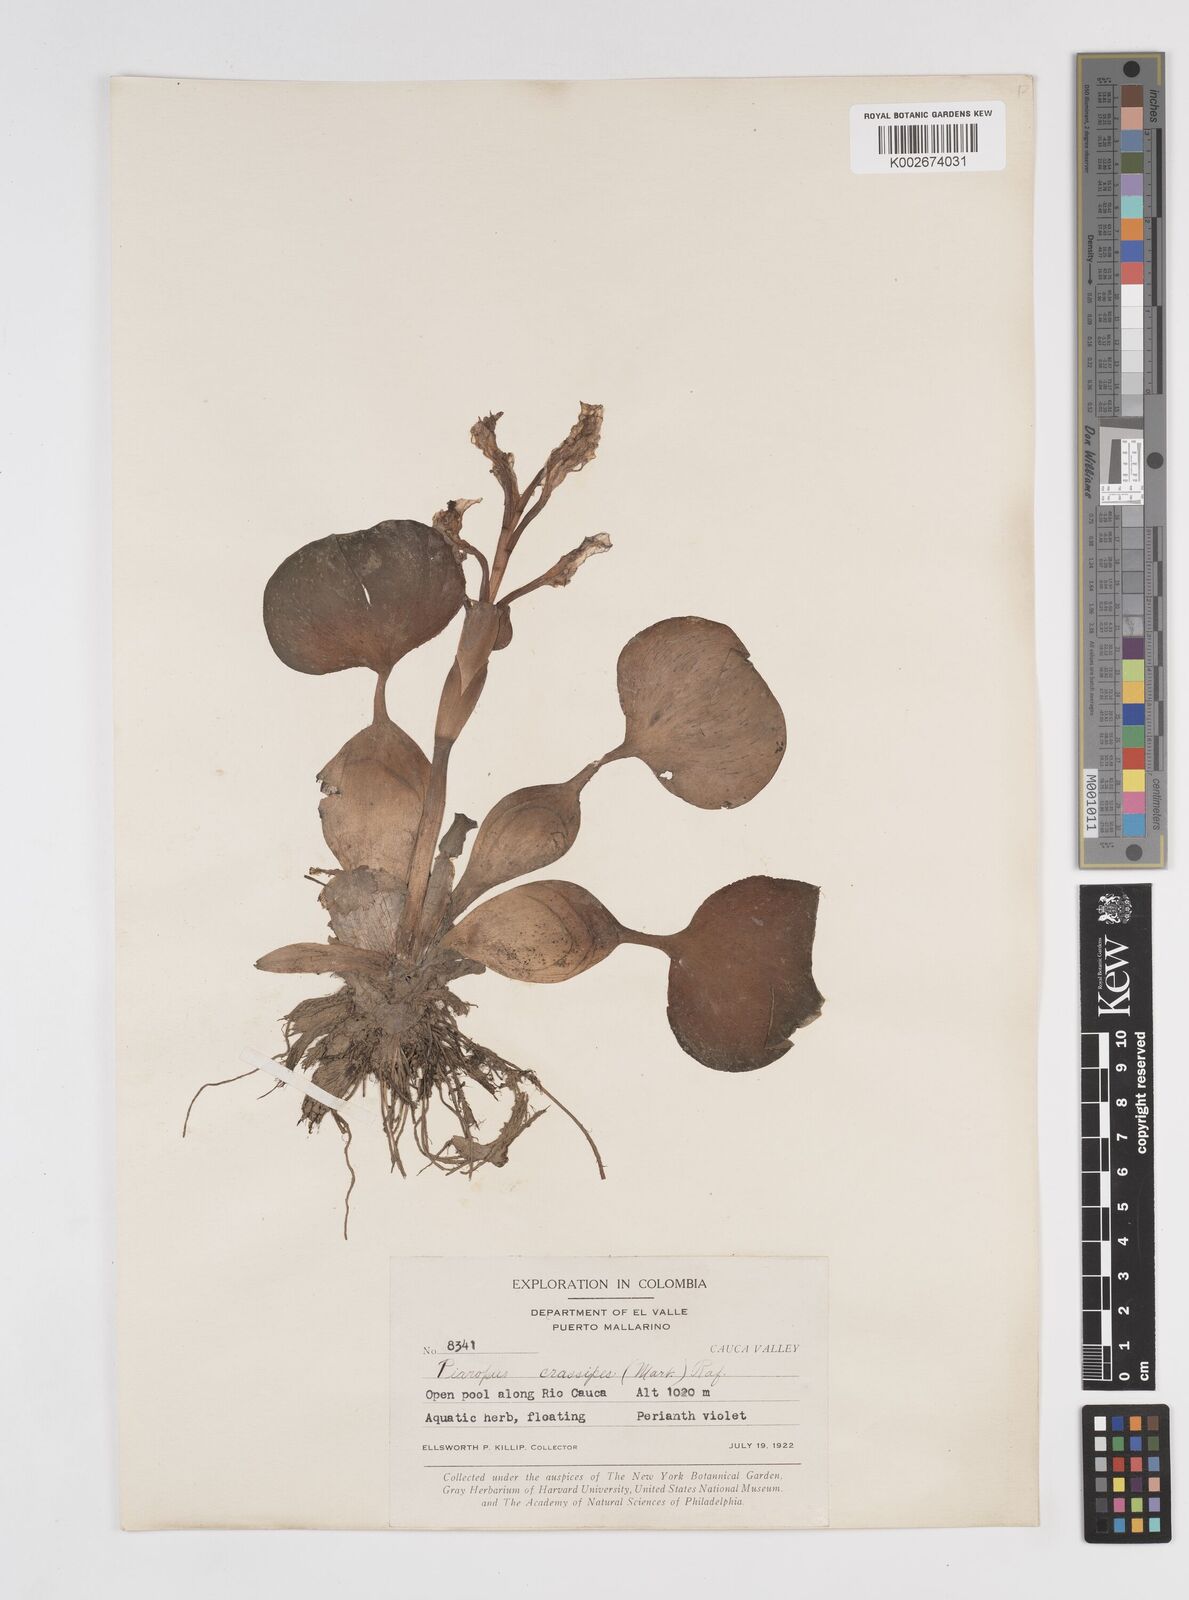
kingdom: Plantae
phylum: Tracheophyta
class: Liliopsida
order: Commelinales
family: Pontederiaceae
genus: Pontederia
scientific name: Pontederia crassipes
